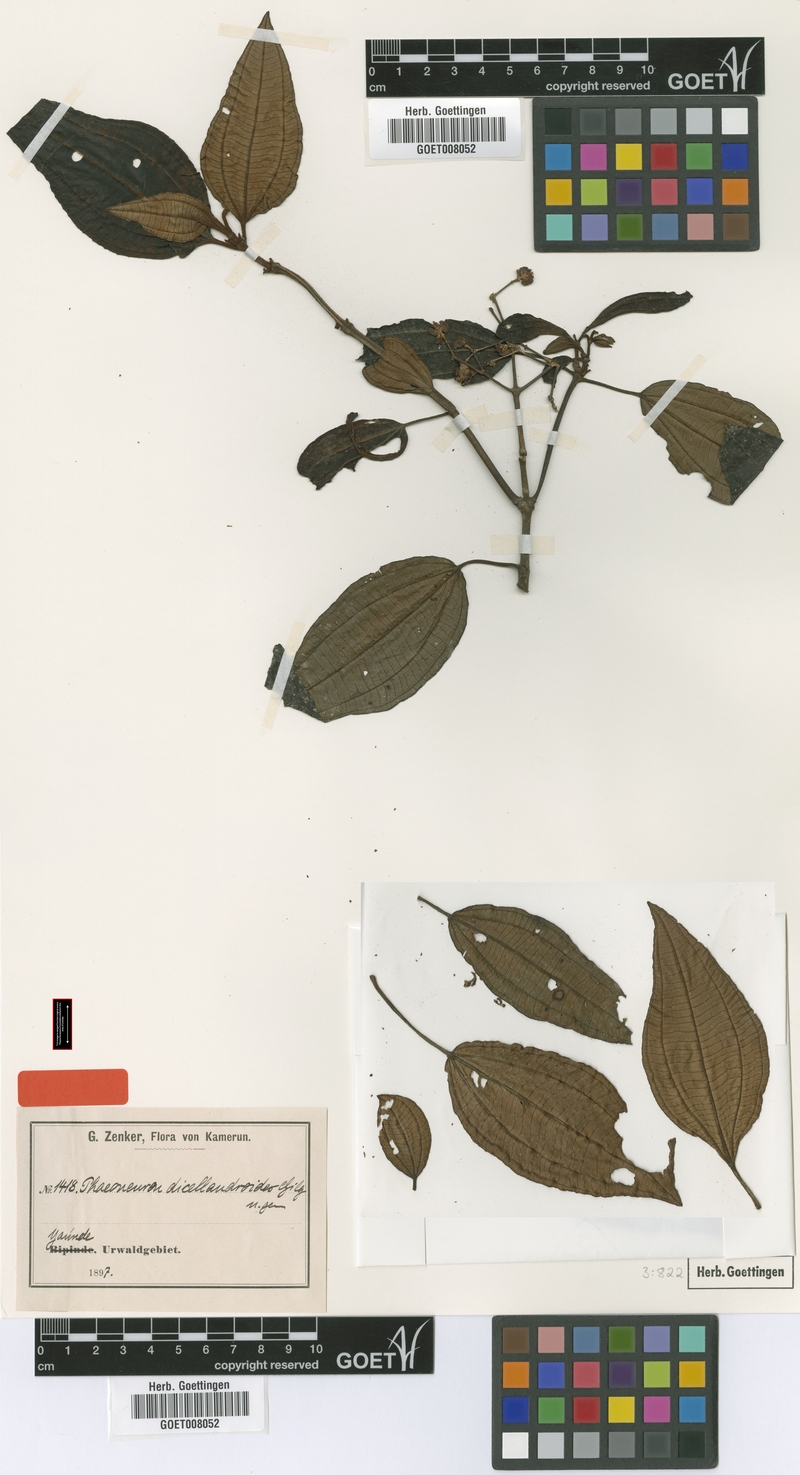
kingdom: Plantae
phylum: Tracheophyta
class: Magnoliopsida
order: Myrtales
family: Melastomataceae
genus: Ochthocharis
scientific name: Ochthocharis dicellandroides
